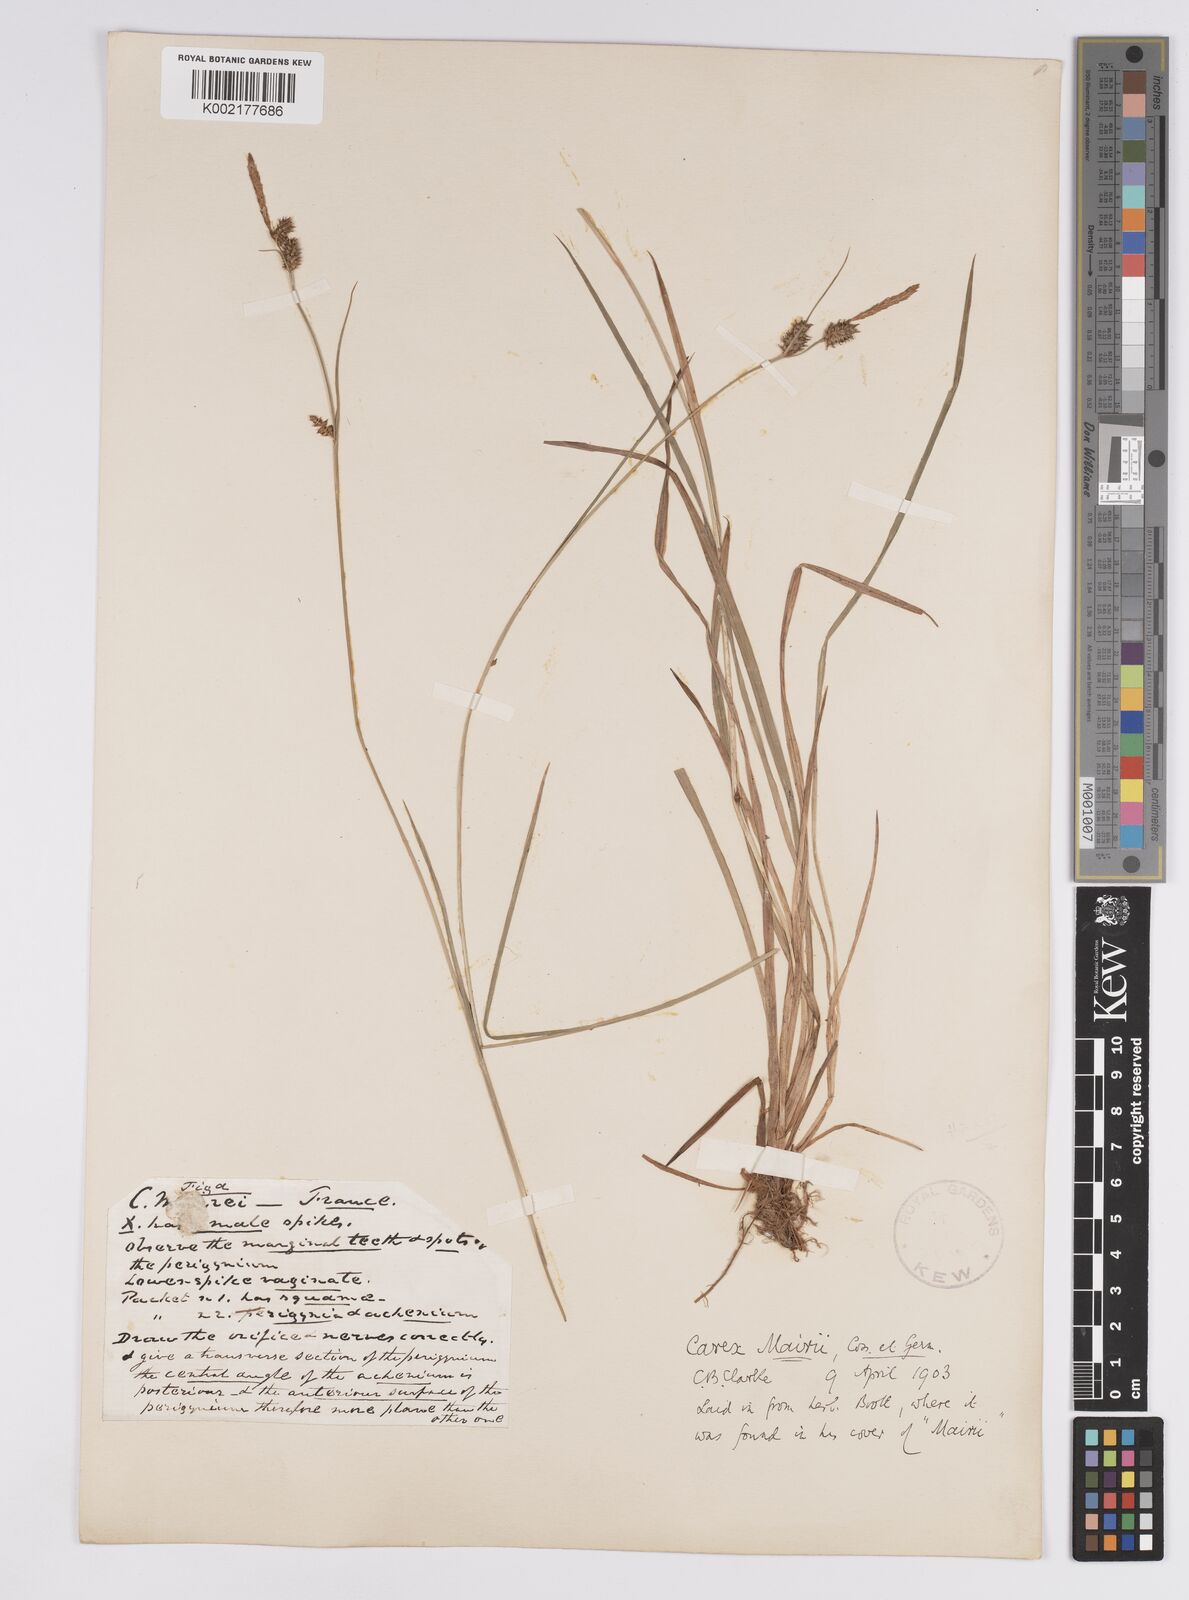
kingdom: Plantae
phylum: Tracheophyta
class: Liliopsida
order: Poales
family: Cyperaceae
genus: Carex
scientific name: Carex mairei
